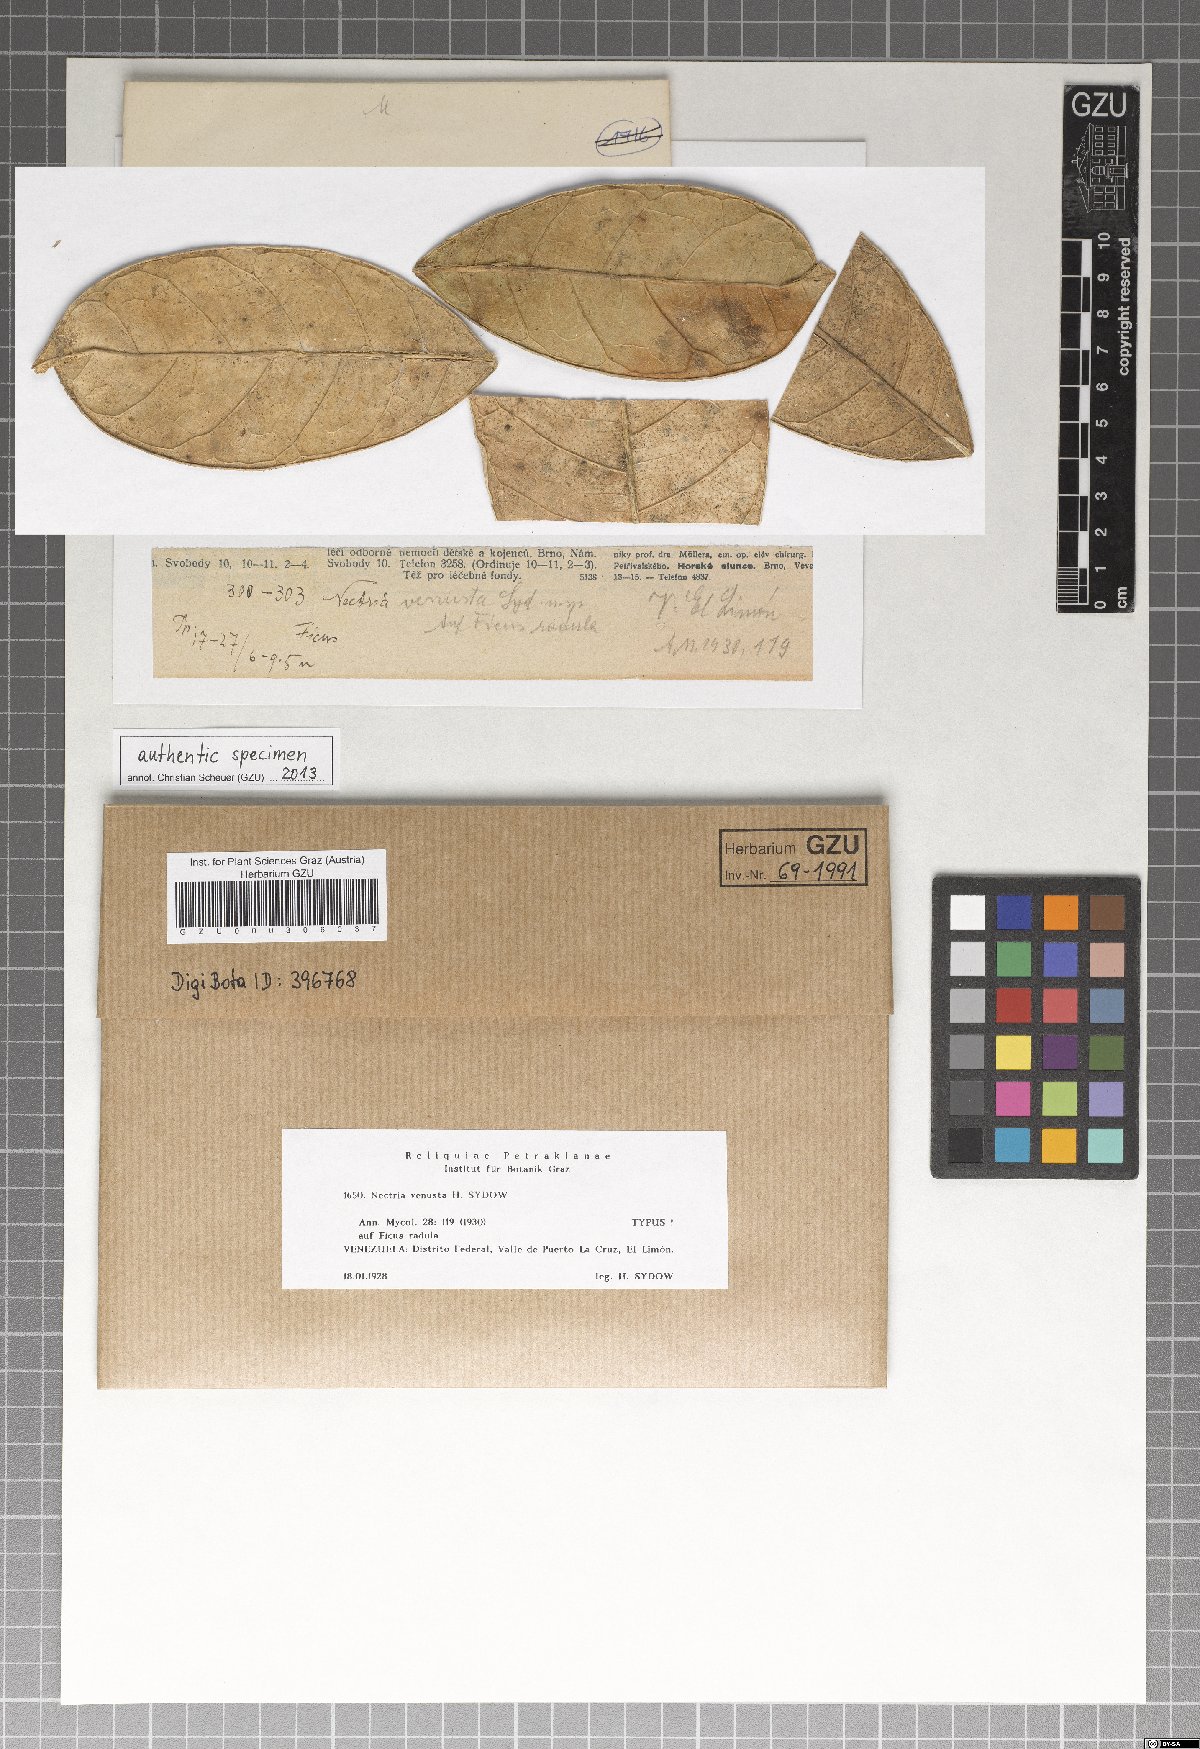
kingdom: Fungi
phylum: Ascomycota
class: Sordariomycetes
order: Hypocreales
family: Nectriaceae
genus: Nectria
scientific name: Nectria venusta
